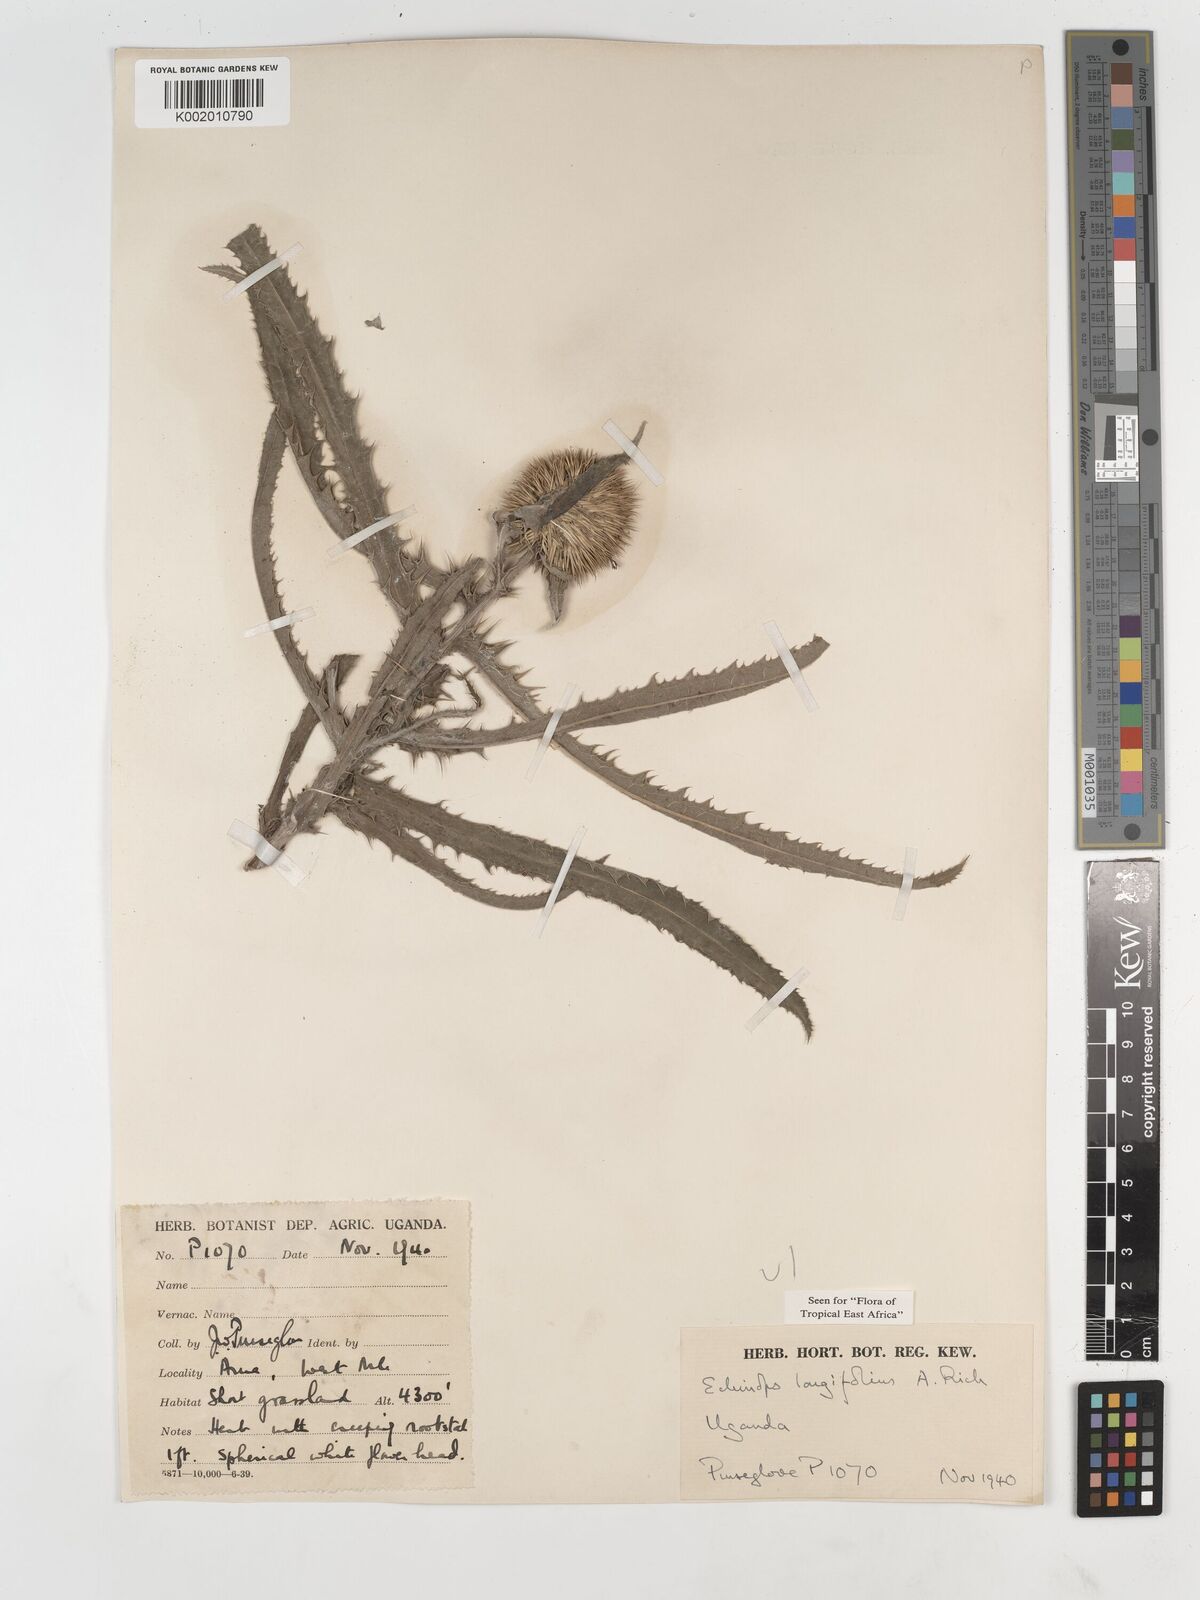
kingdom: Plantae
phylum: Tracheophyta
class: Magnoliopsida
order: Asterales
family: Asteraceae
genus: Echinops
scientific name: Echinops longifolius
